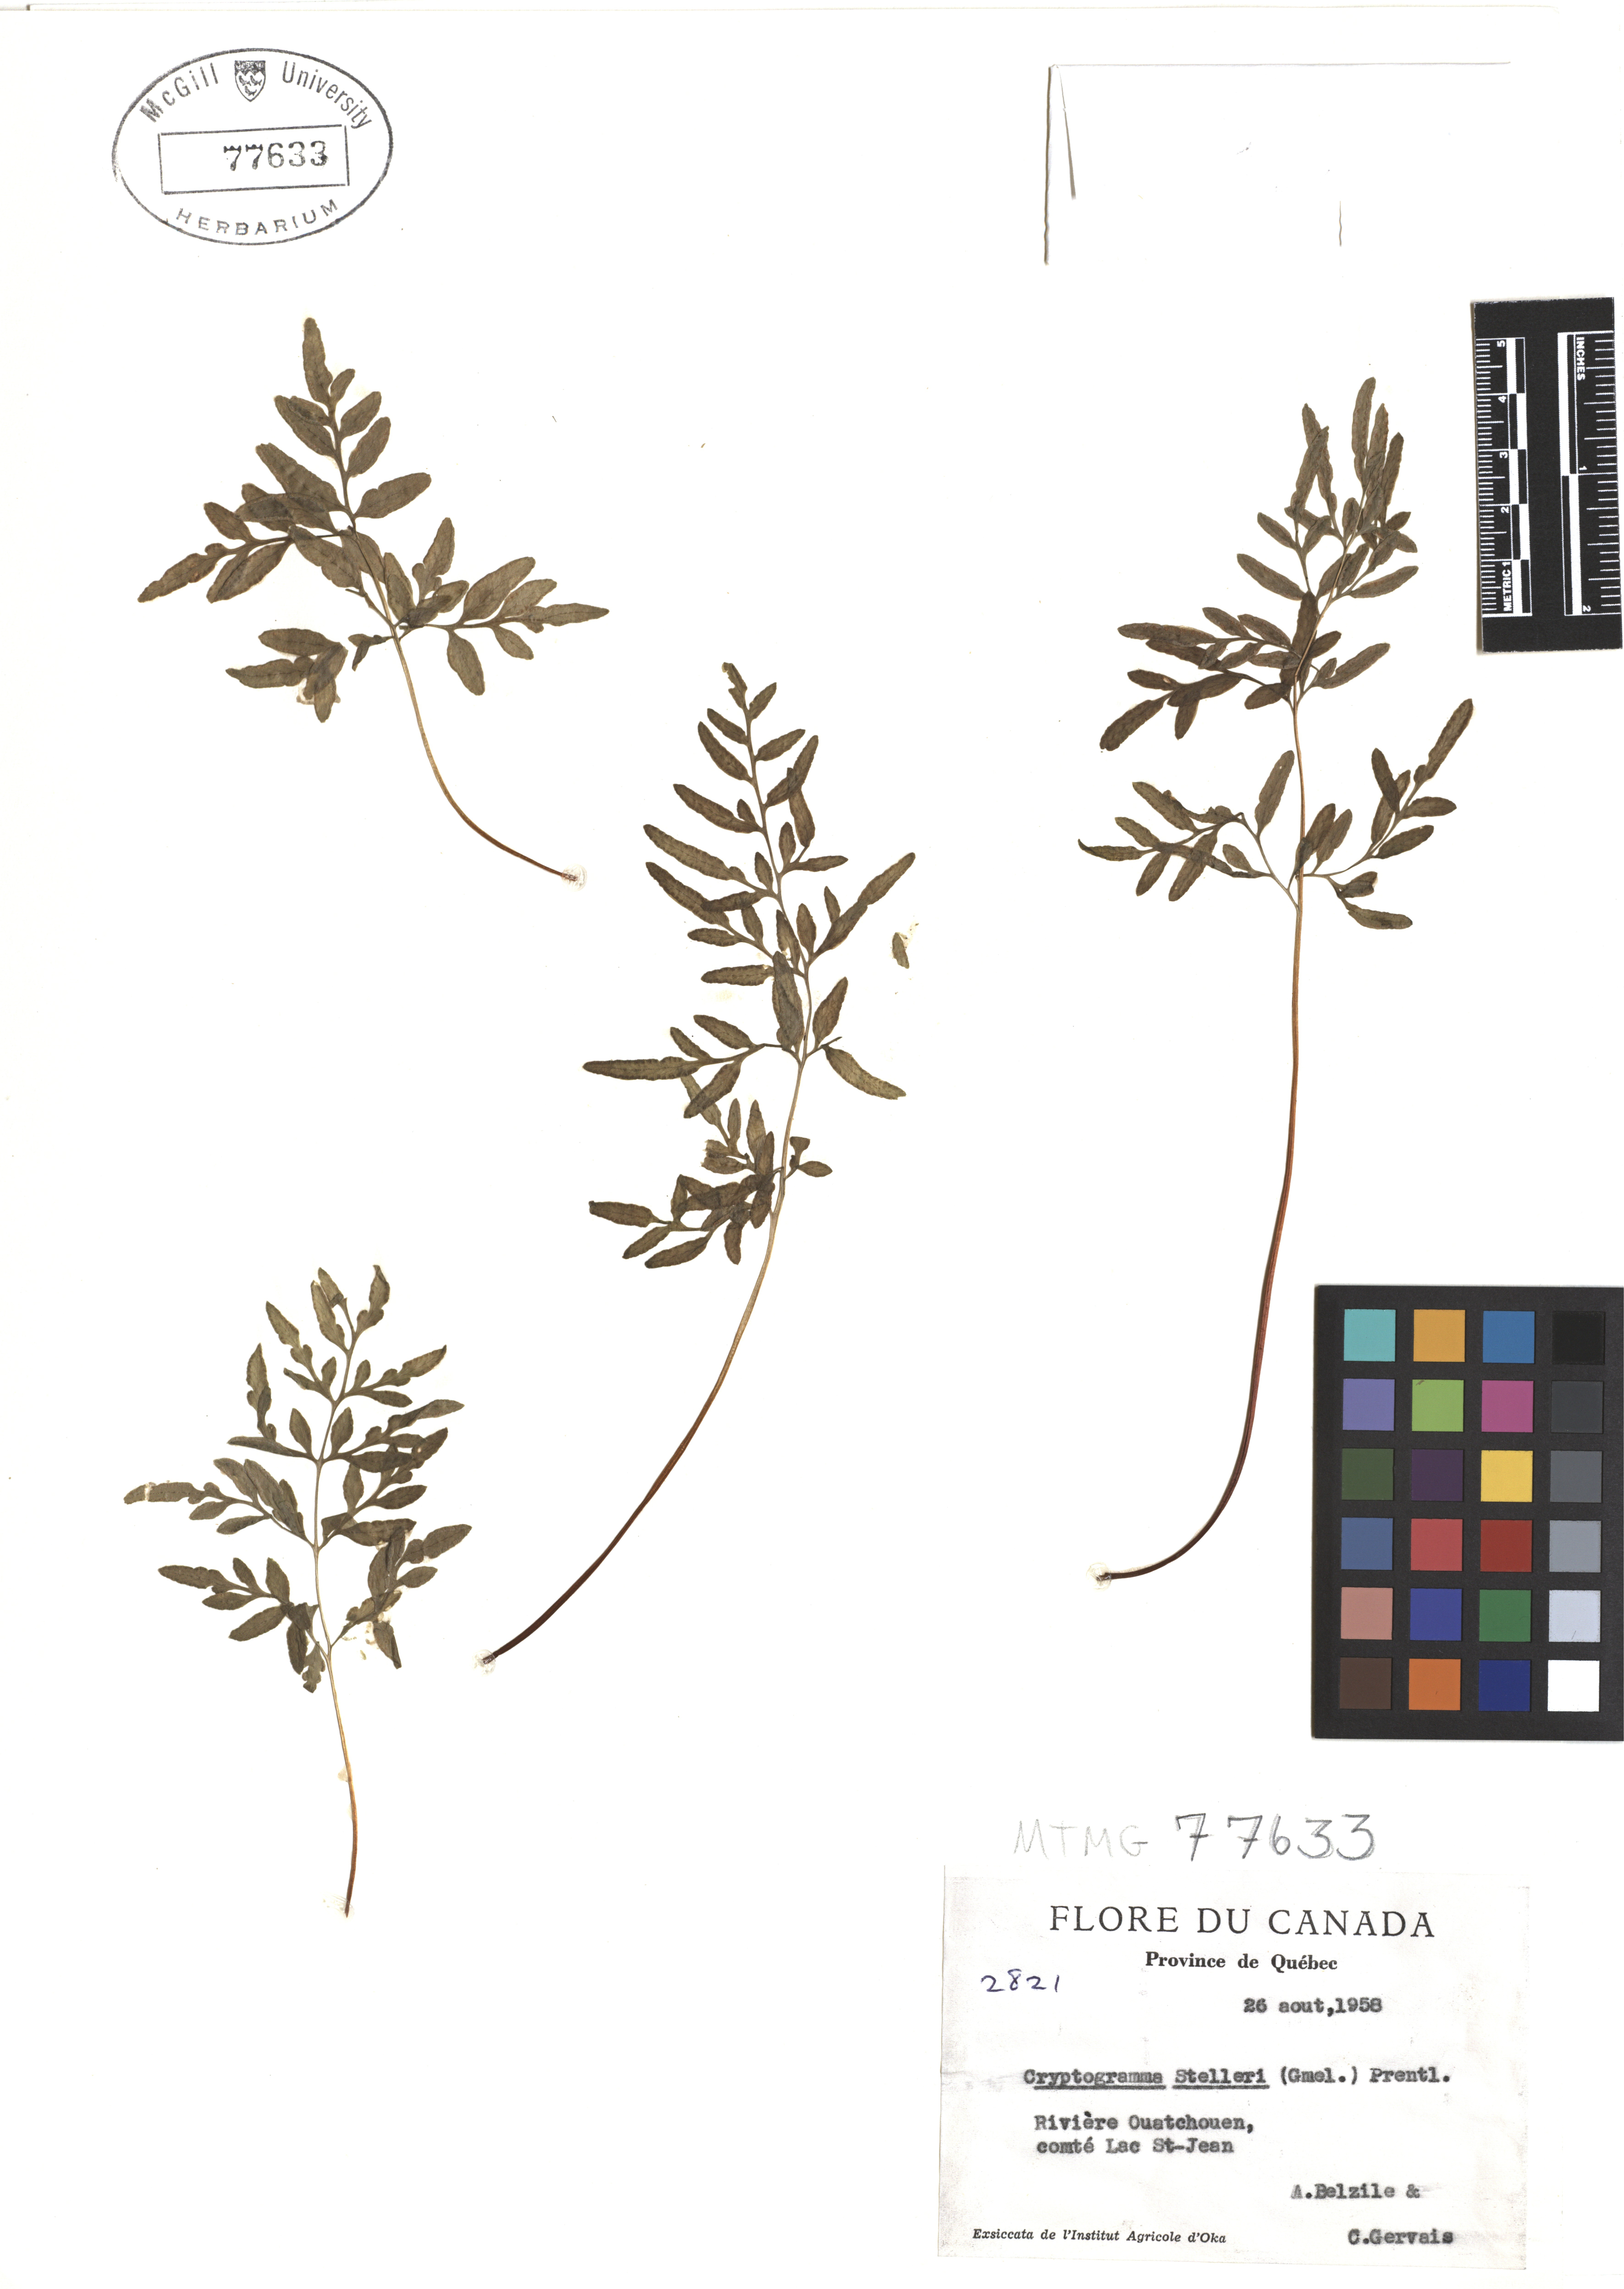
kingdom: Plantae
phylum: Tracheophyta
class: Polypodiopsida
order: Polypodiales
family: Pteridaceae
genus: Cryptogramma
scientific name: Cryptogramma stelleri
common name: Cliff-brake
